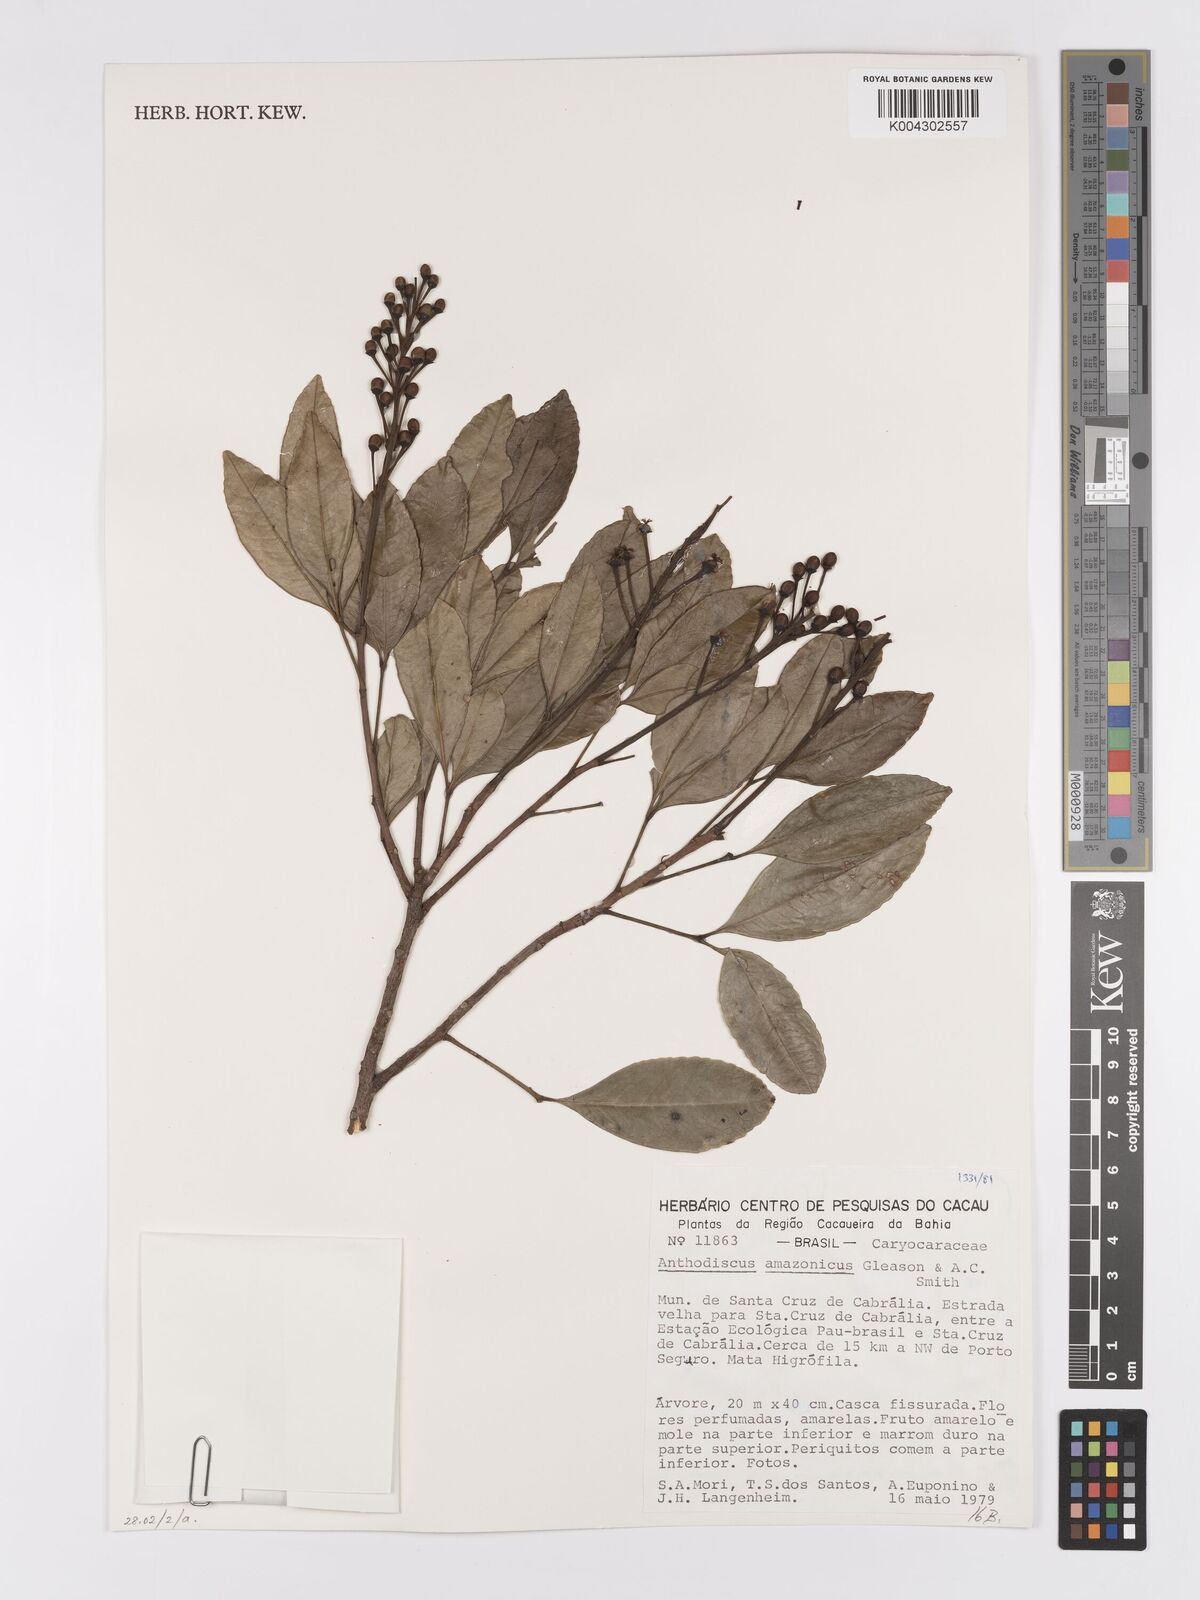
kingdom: Plantae
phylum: Tracheophyta
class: Magnoliopsida
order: Malpighiales
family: Caryocaraceae
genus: Anthodiscus
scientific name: Anthodiscus amazonicus
